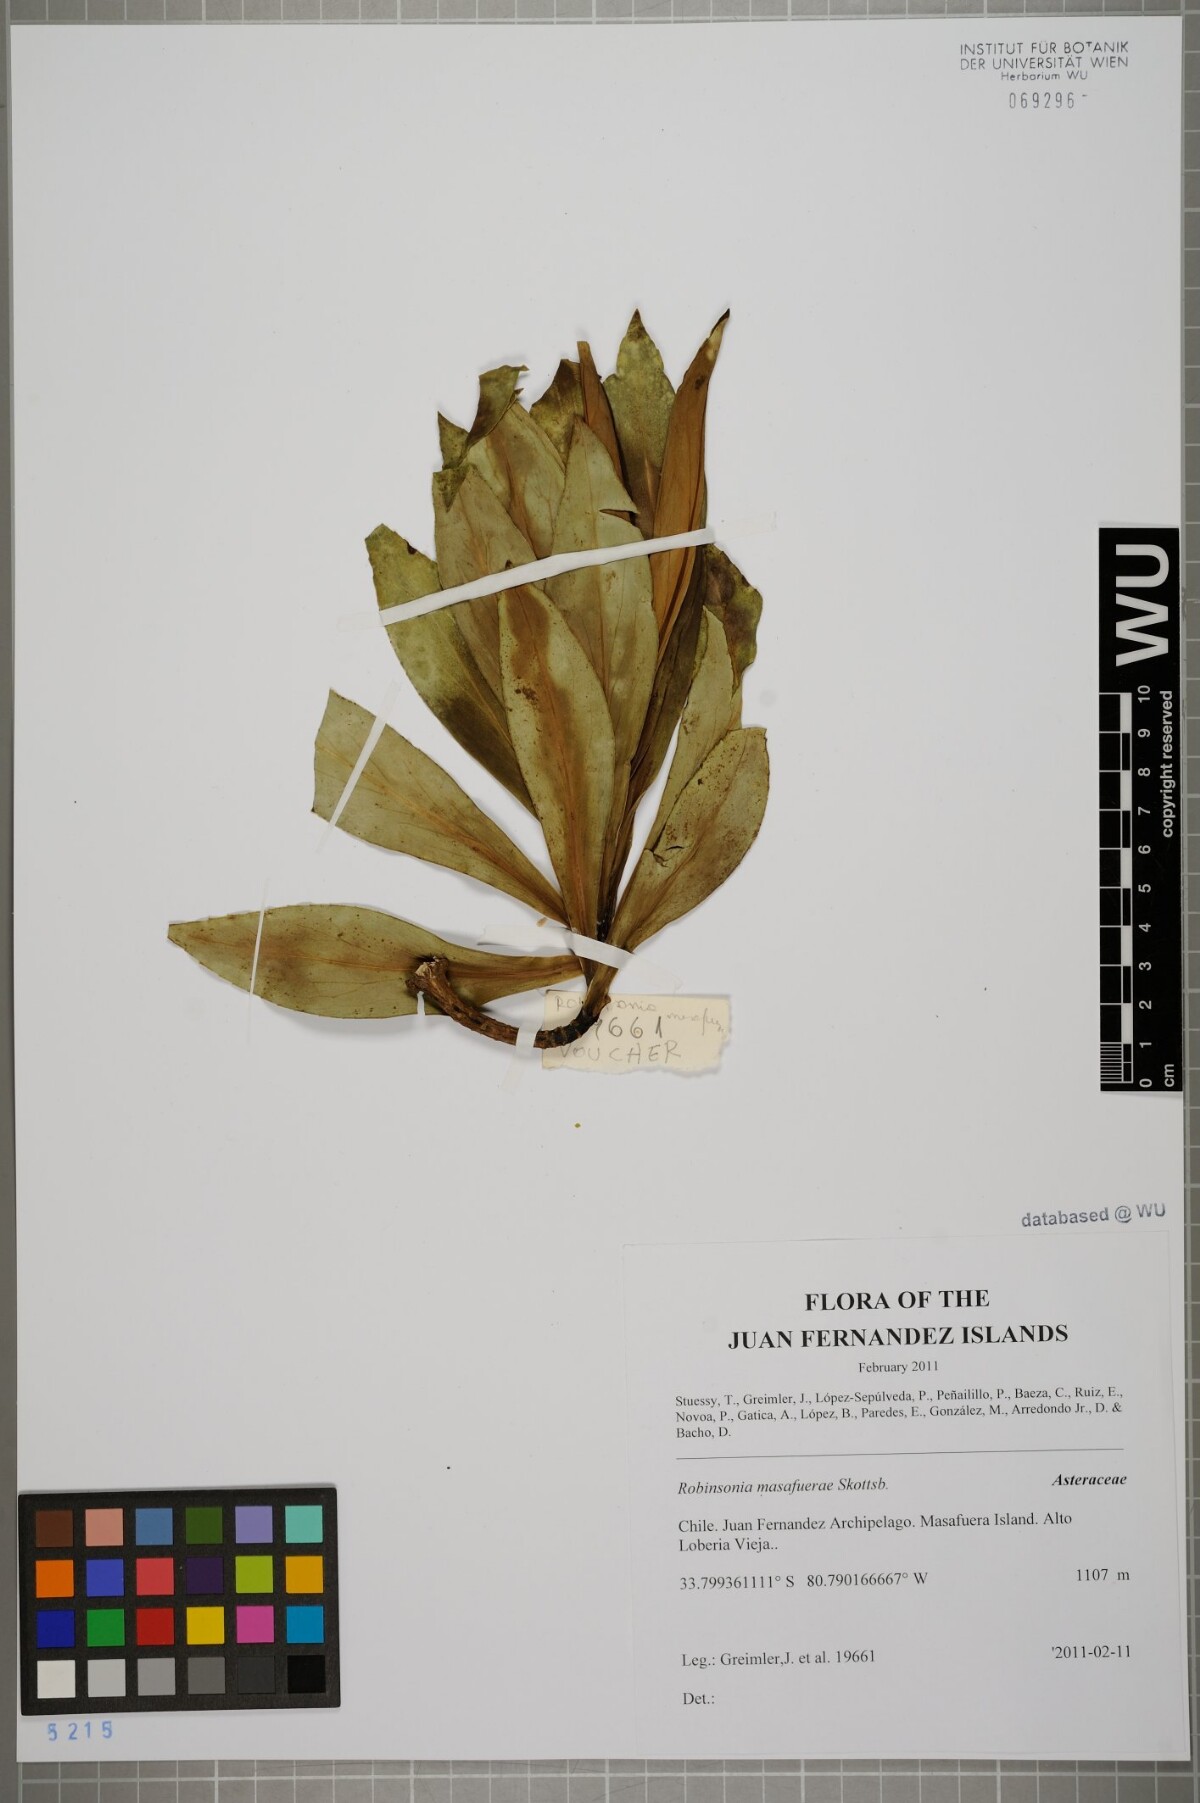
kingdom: Plantae
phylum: Tracheophyta
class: Magnoliopsida
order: Asterales
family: Asteraceae
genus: Robinsonia
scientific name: Robinsonia masafuerae
